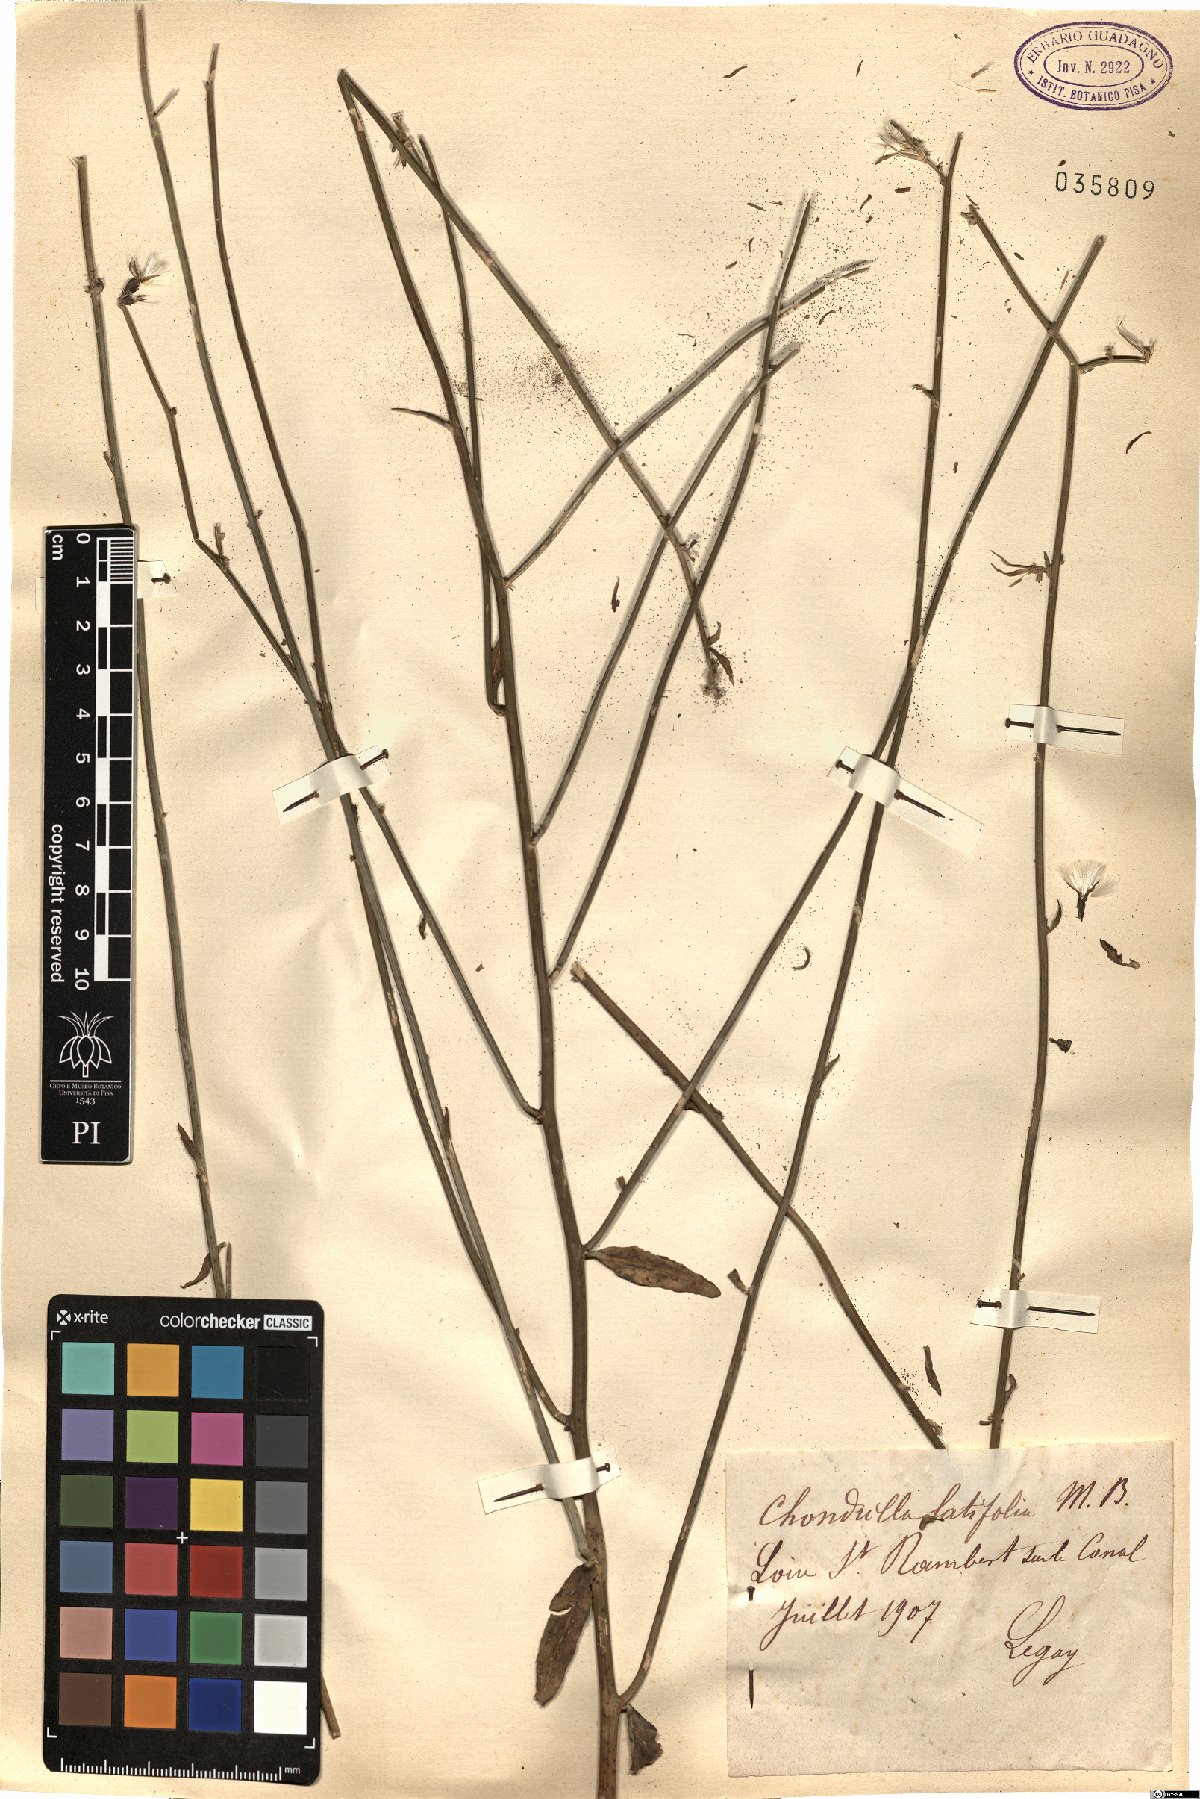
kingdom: Plantae
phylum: Tracheophyta
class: Magnoliopsida
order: Asterales
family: Asteraceae
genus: Chondrilla
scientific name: Chondrilla latifolia
